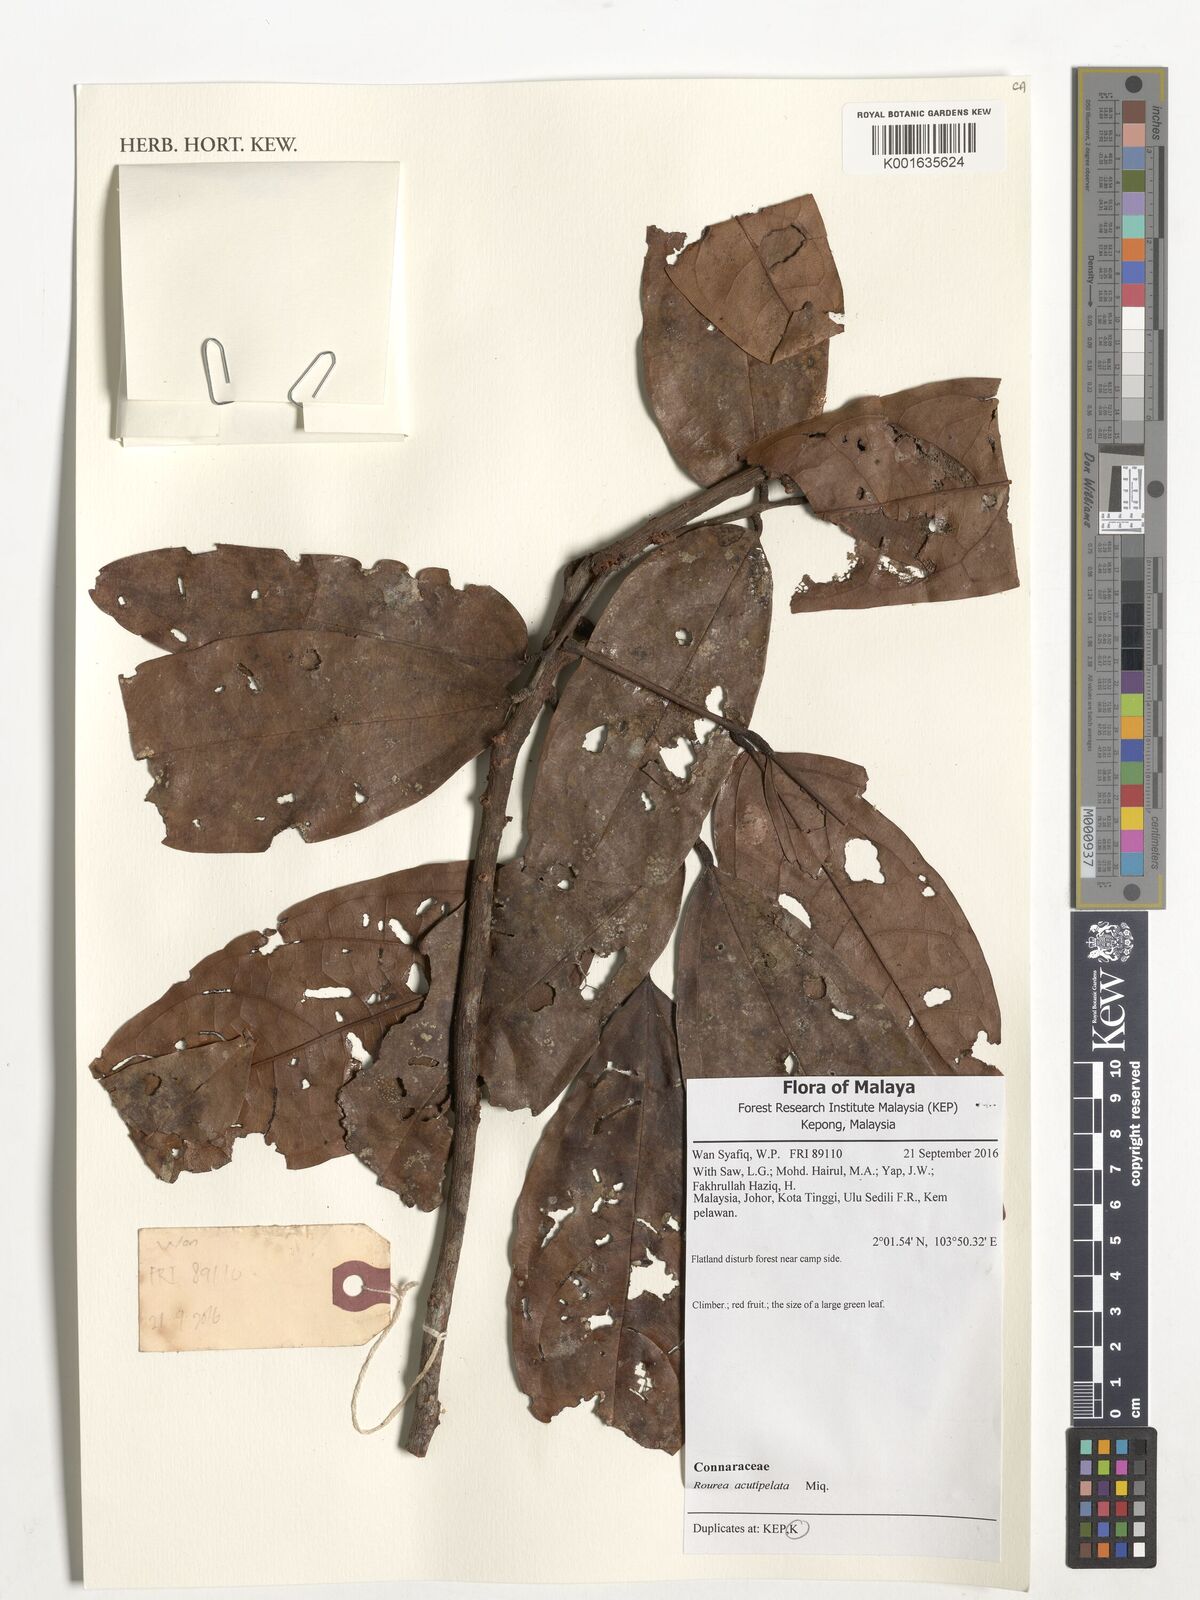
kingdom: Plantae
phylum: Tracheophyta
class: Magnoliopsida
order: Oxalidales
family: Connaraceae
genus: Rourea
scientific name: Rourea acutipetala
